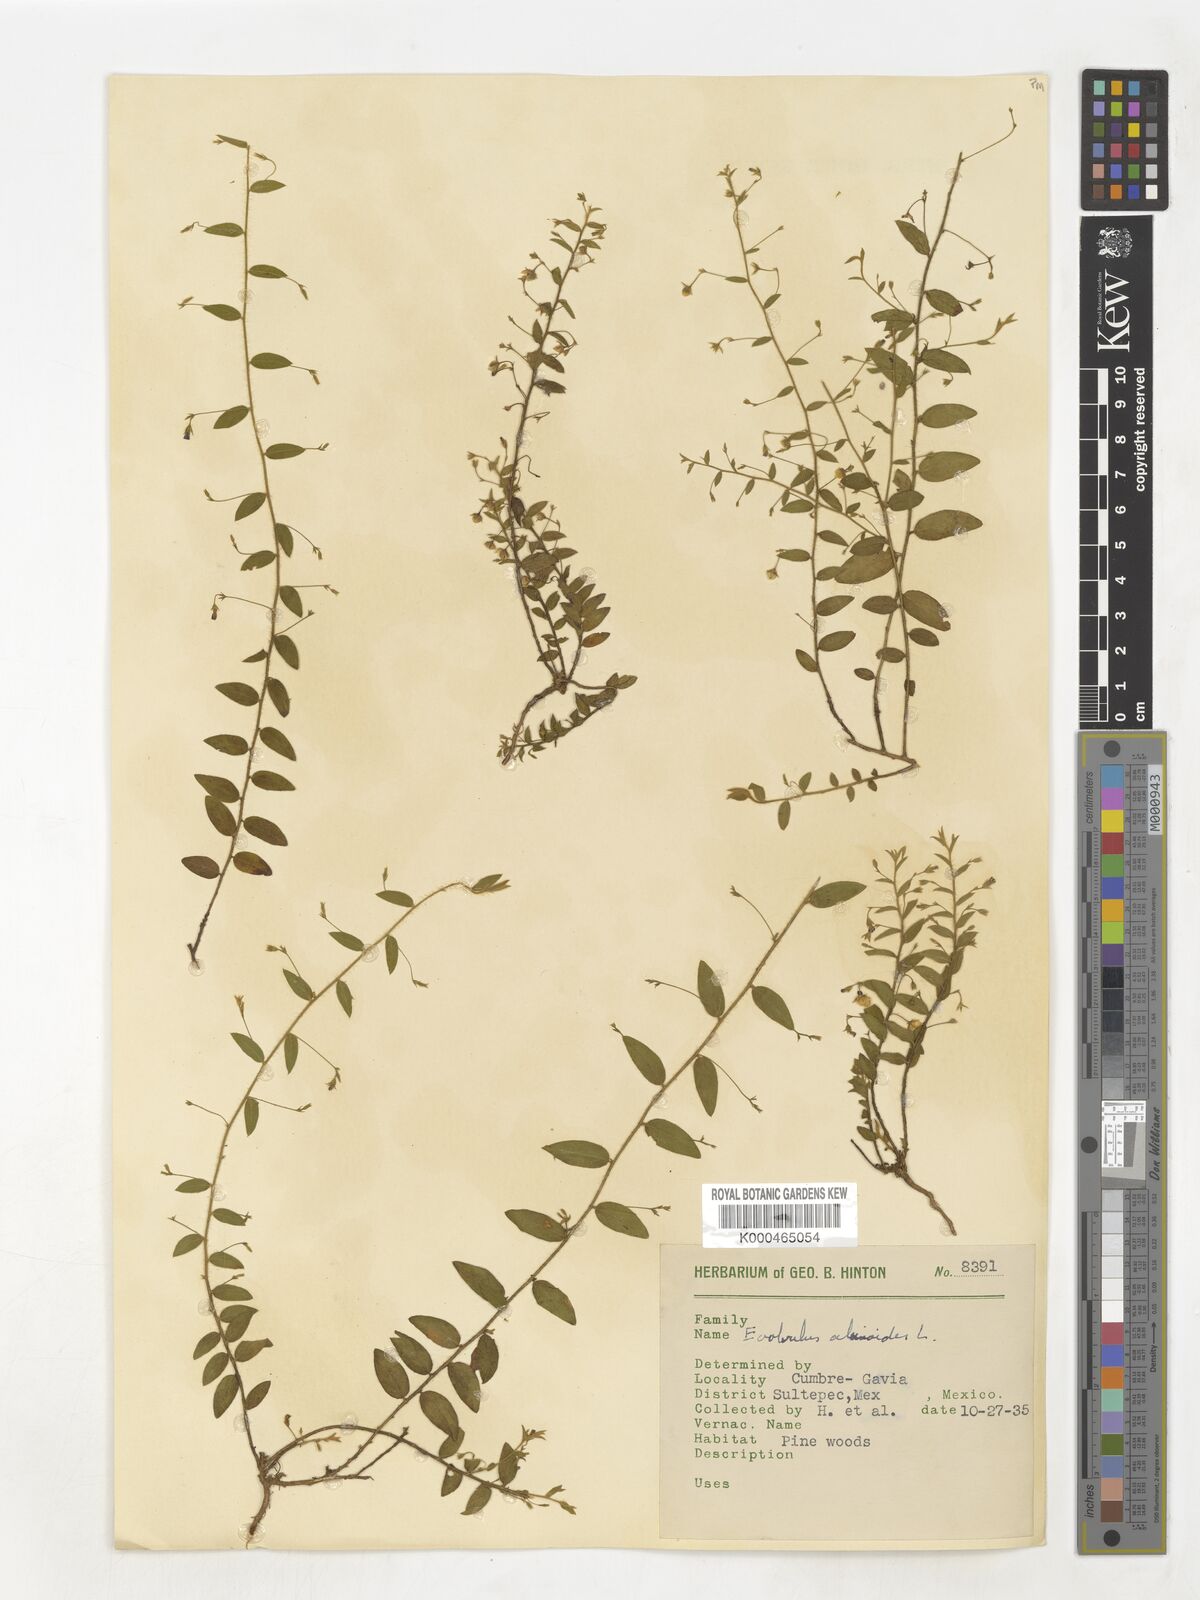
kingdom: Plantae
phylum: Tracheophyta
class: Magnoliopsida
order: Solanales
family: Convolvulaceae
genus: Evolvulus
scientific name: Evolvulus alsinoides
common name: Slender dwarf morning-glory
